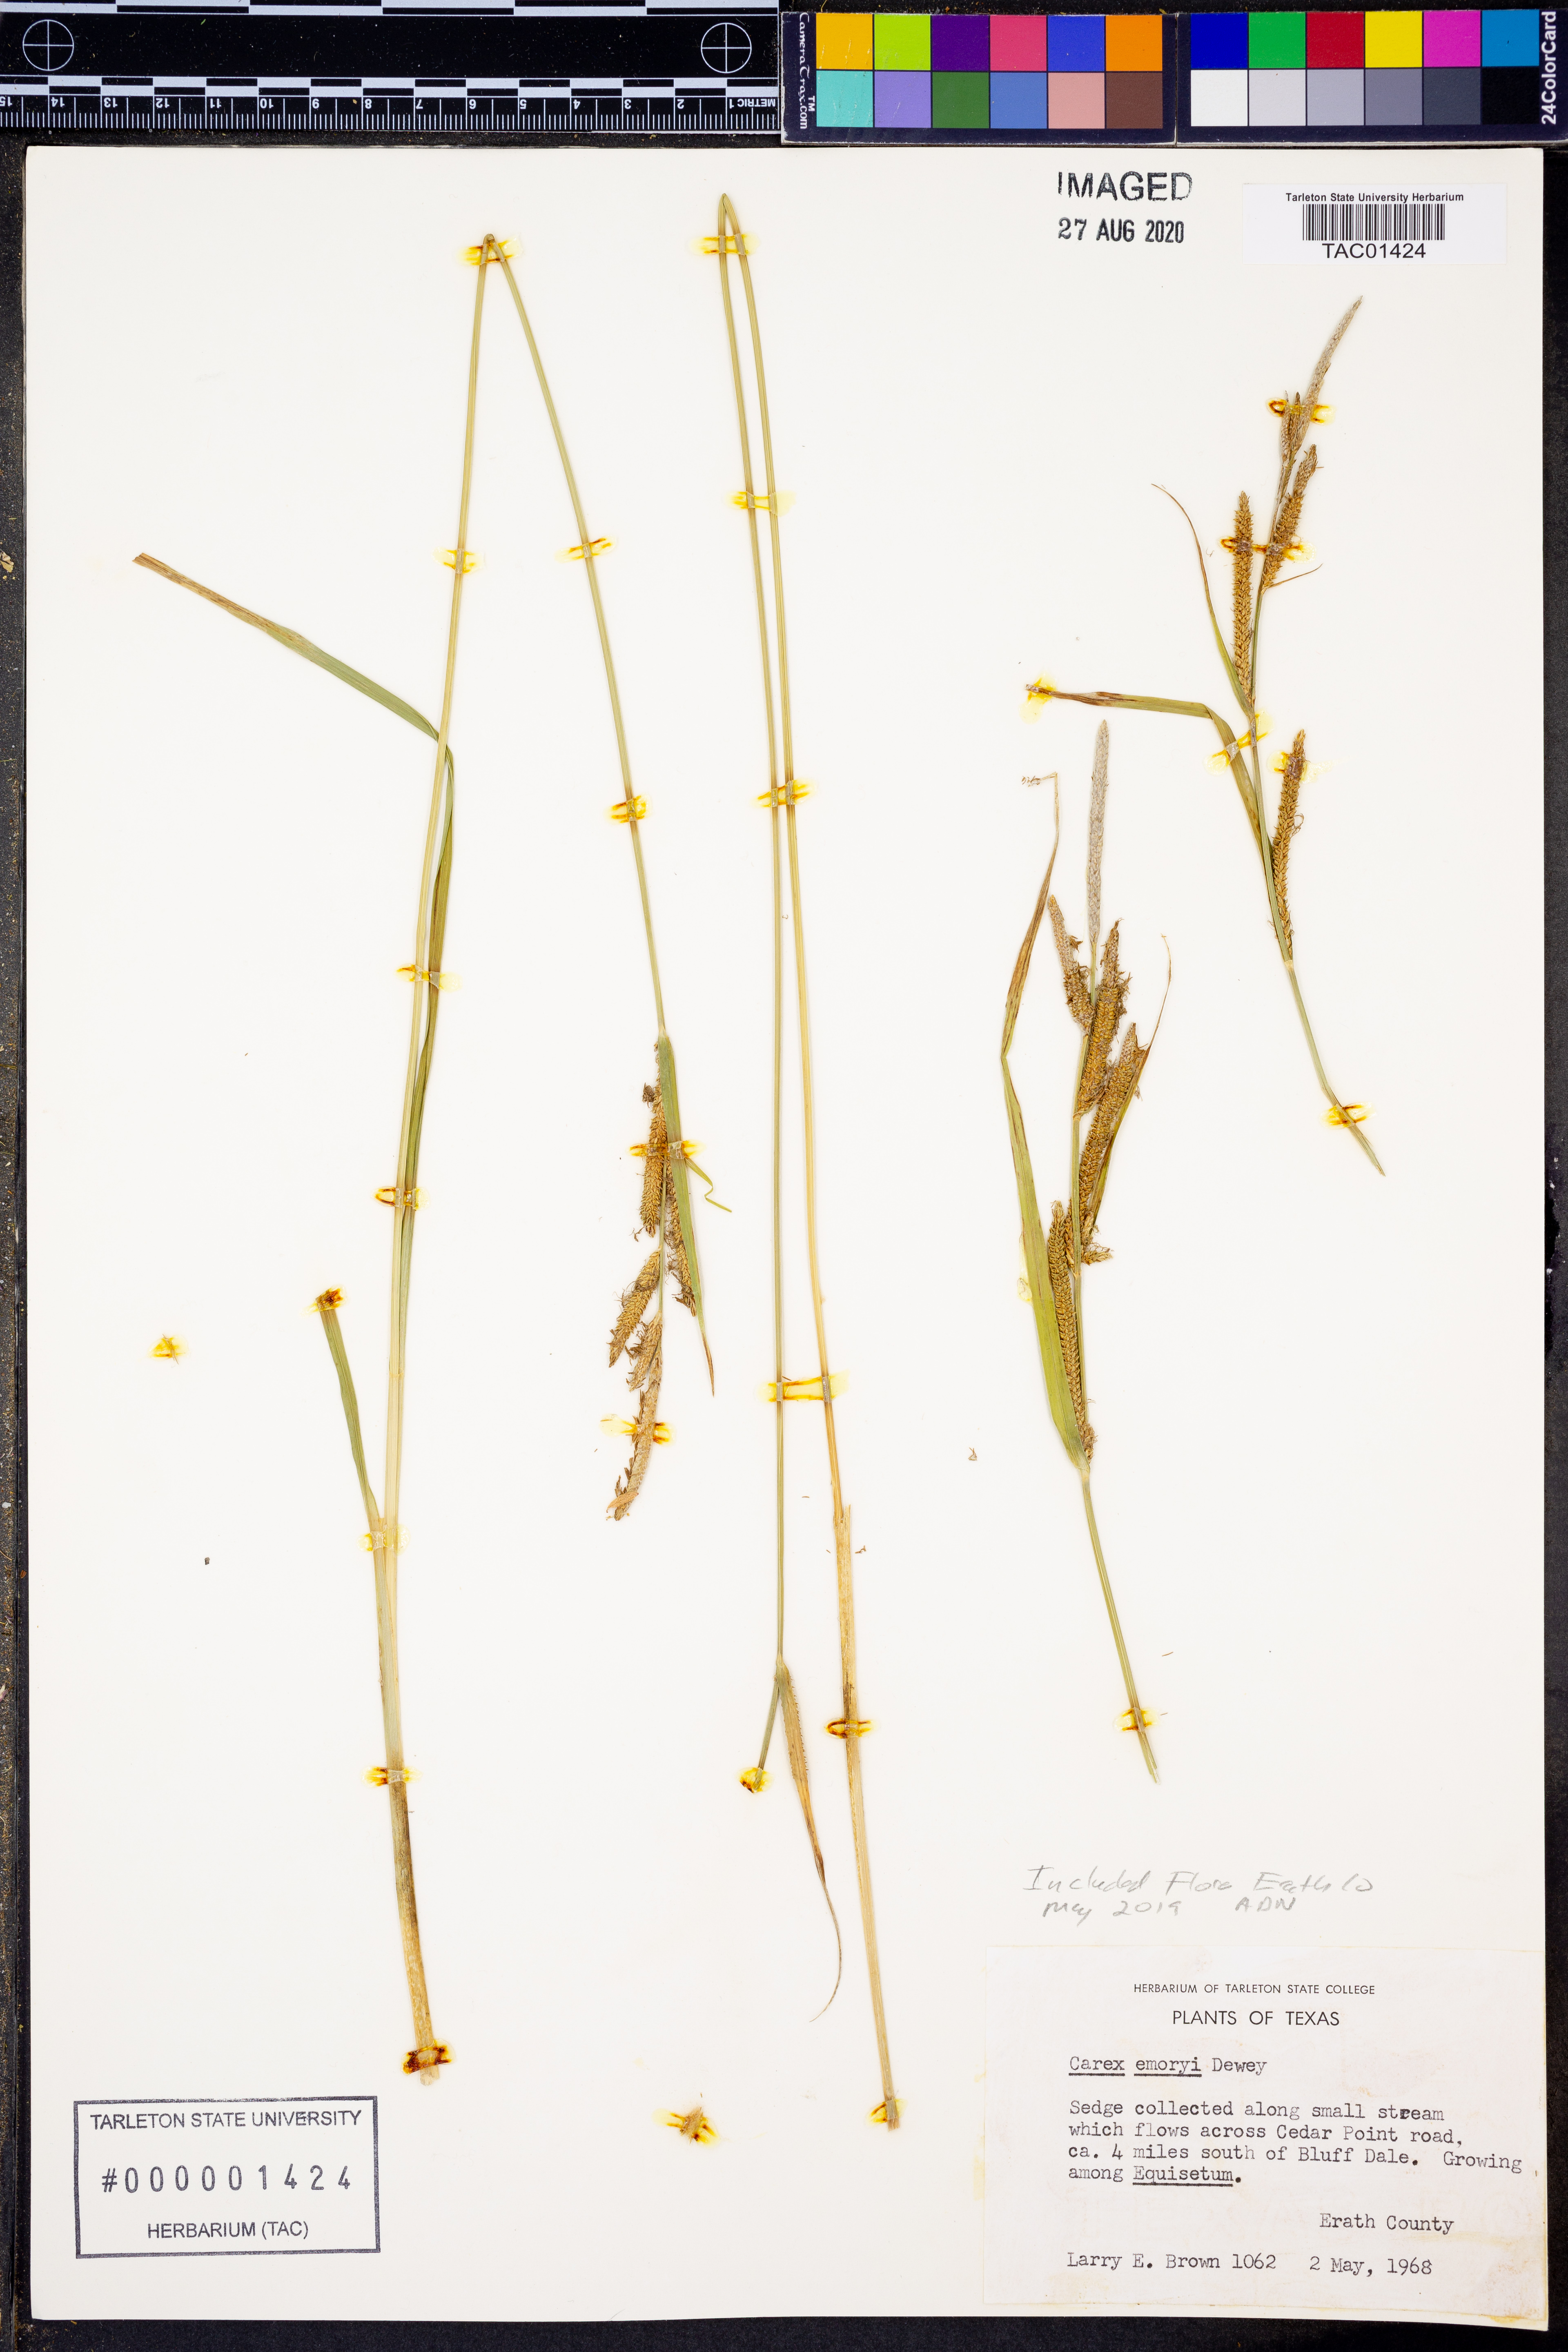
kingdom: Plantae
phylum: Tracheophyta
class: Liliopsida
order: Poales
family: Cyperaceae
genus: Carex
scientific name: Carex emoryi
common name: Emory's sedge
